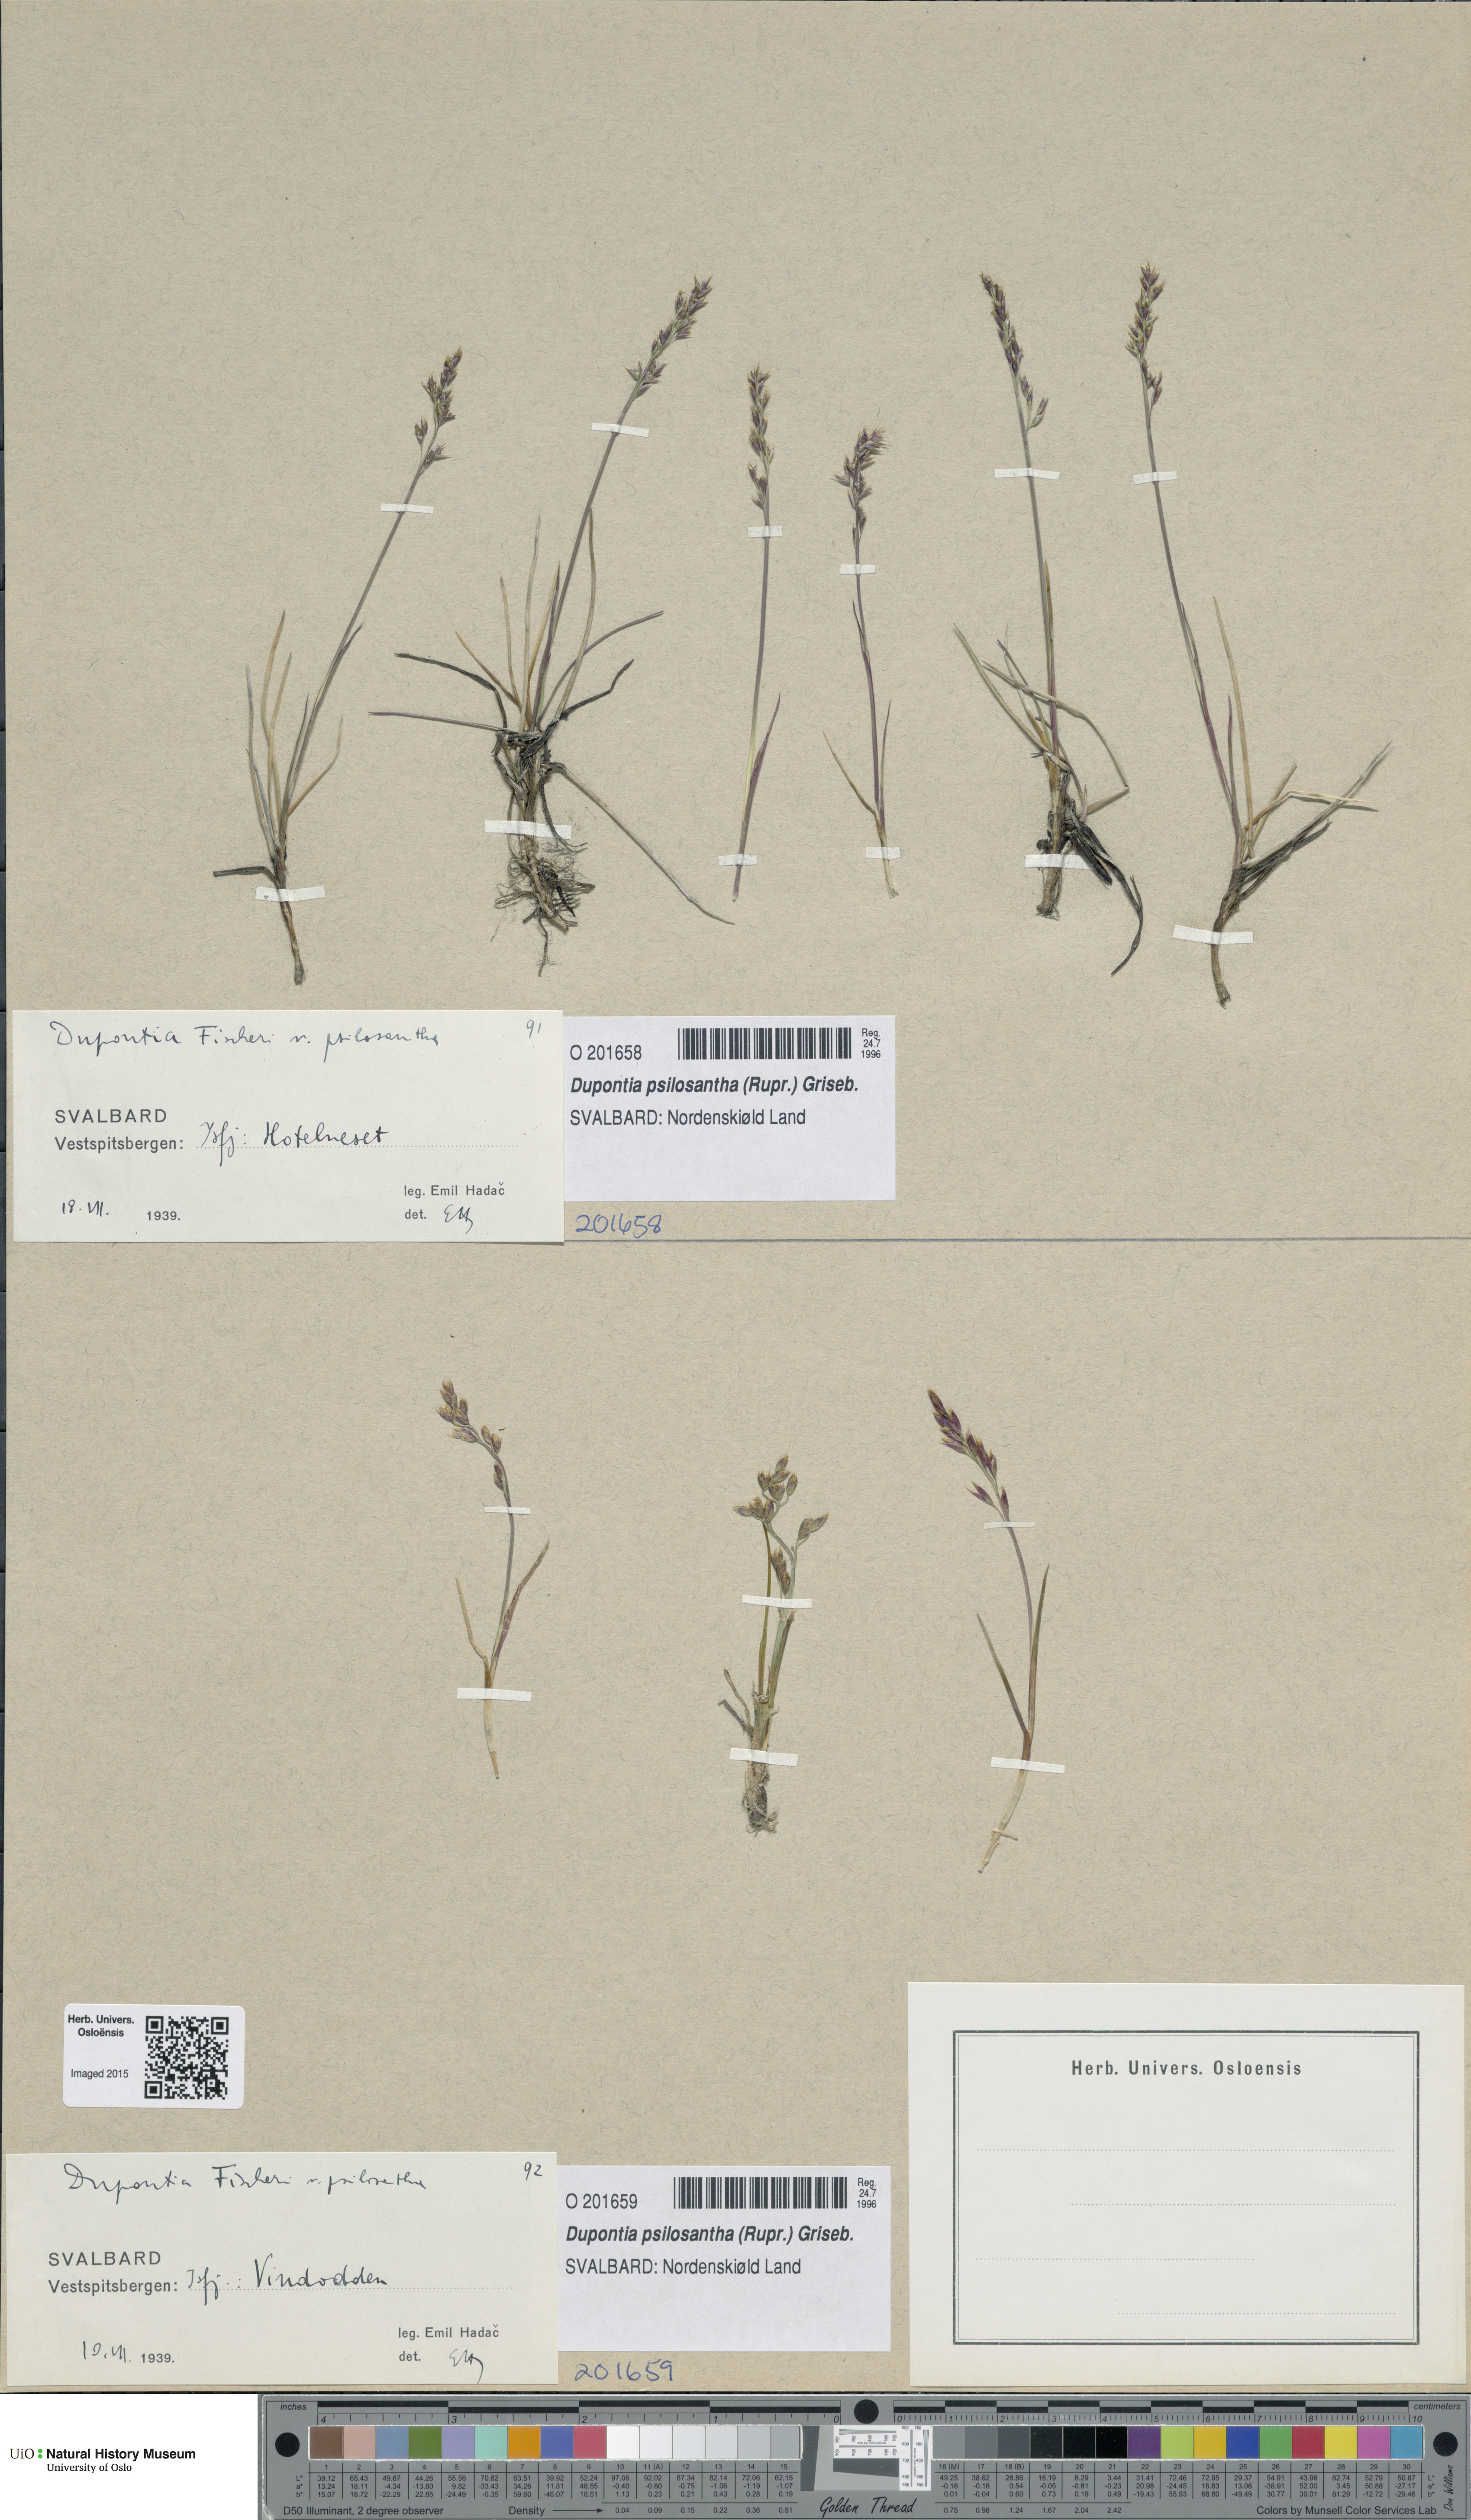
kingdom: Plantae
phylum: Tracheophyta
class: Liliopsida
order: Poales
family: Poaceae
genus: Dupontia
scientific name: Dupontia fisheri
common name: Tundra grass
